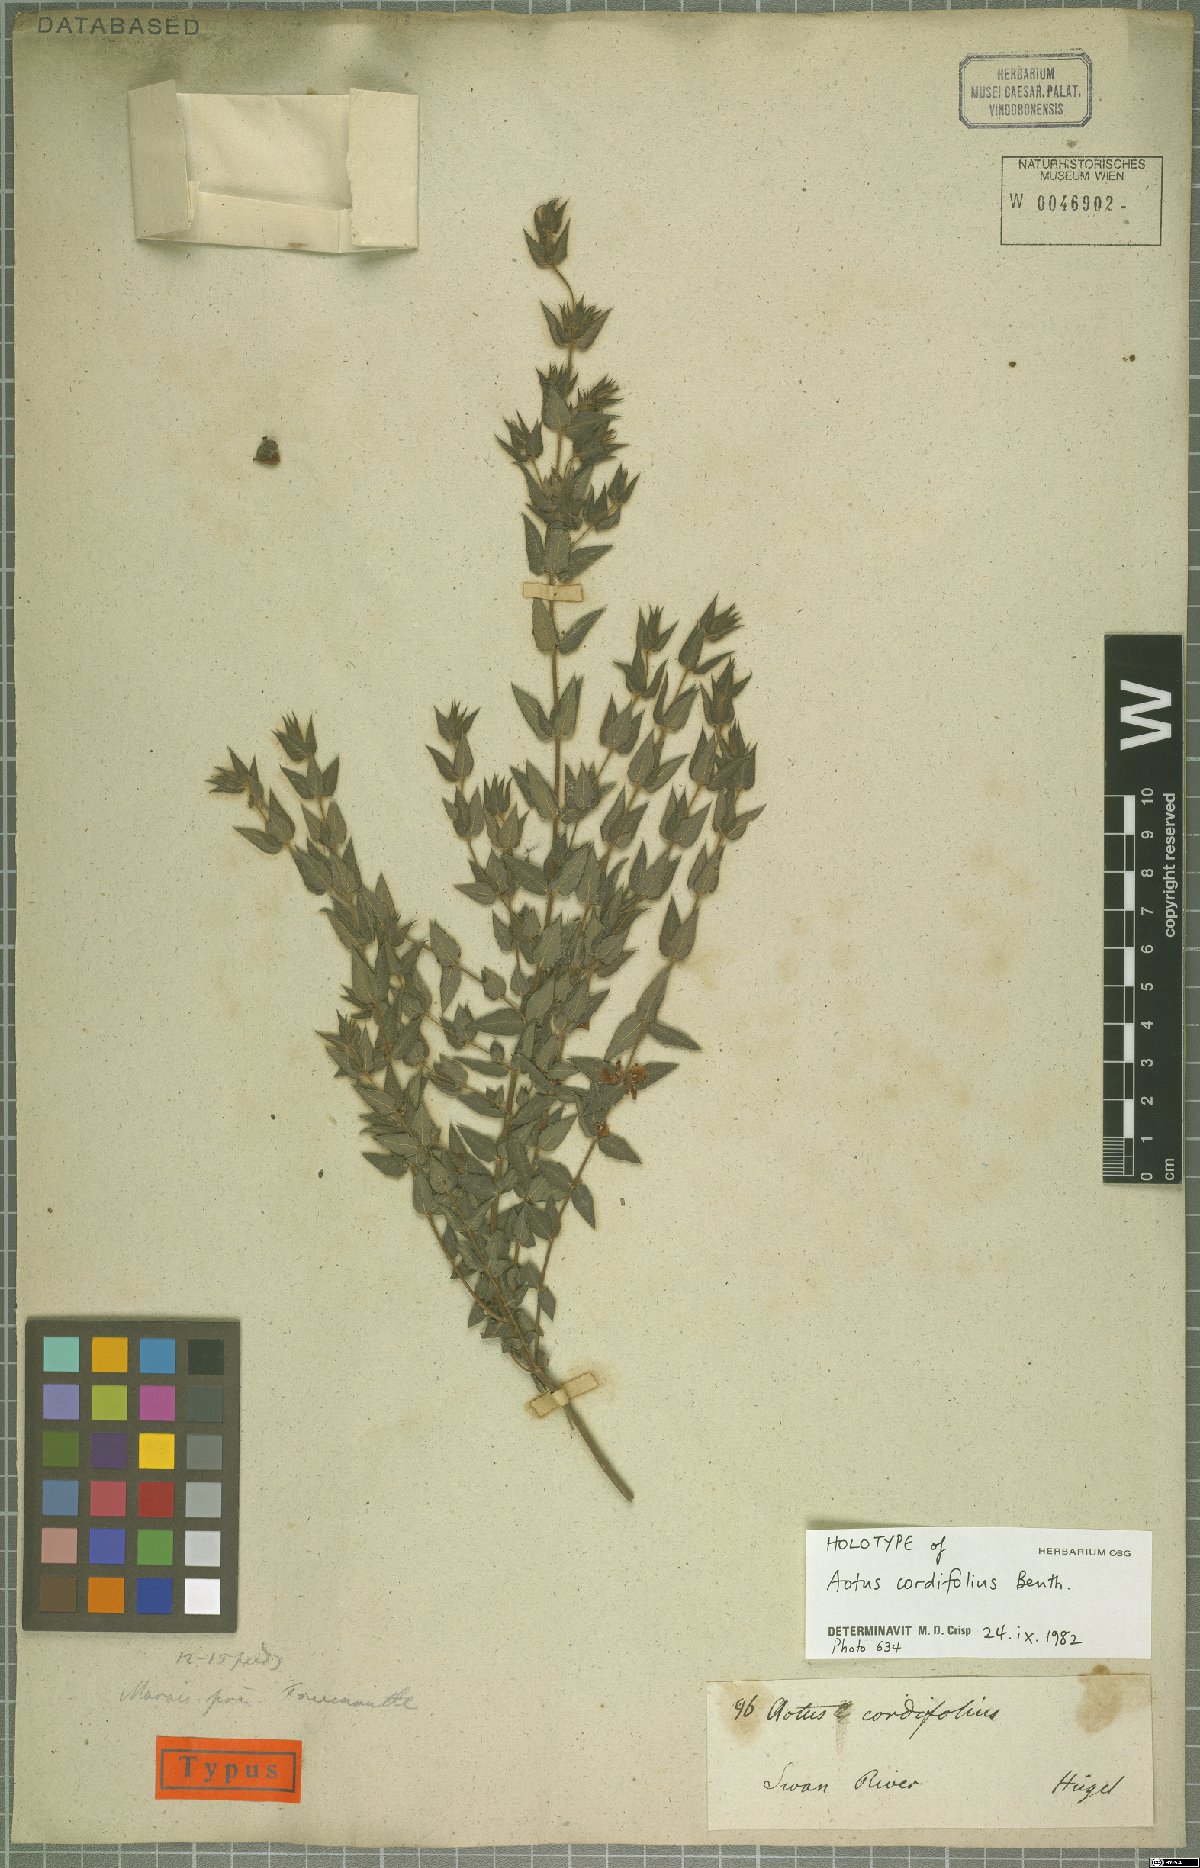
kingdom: Plantae
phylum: Tracheophyta
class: Magnoliopsida
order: Fabales
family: Fabaceae
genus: Aotus
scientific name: Aotus cordifolia
